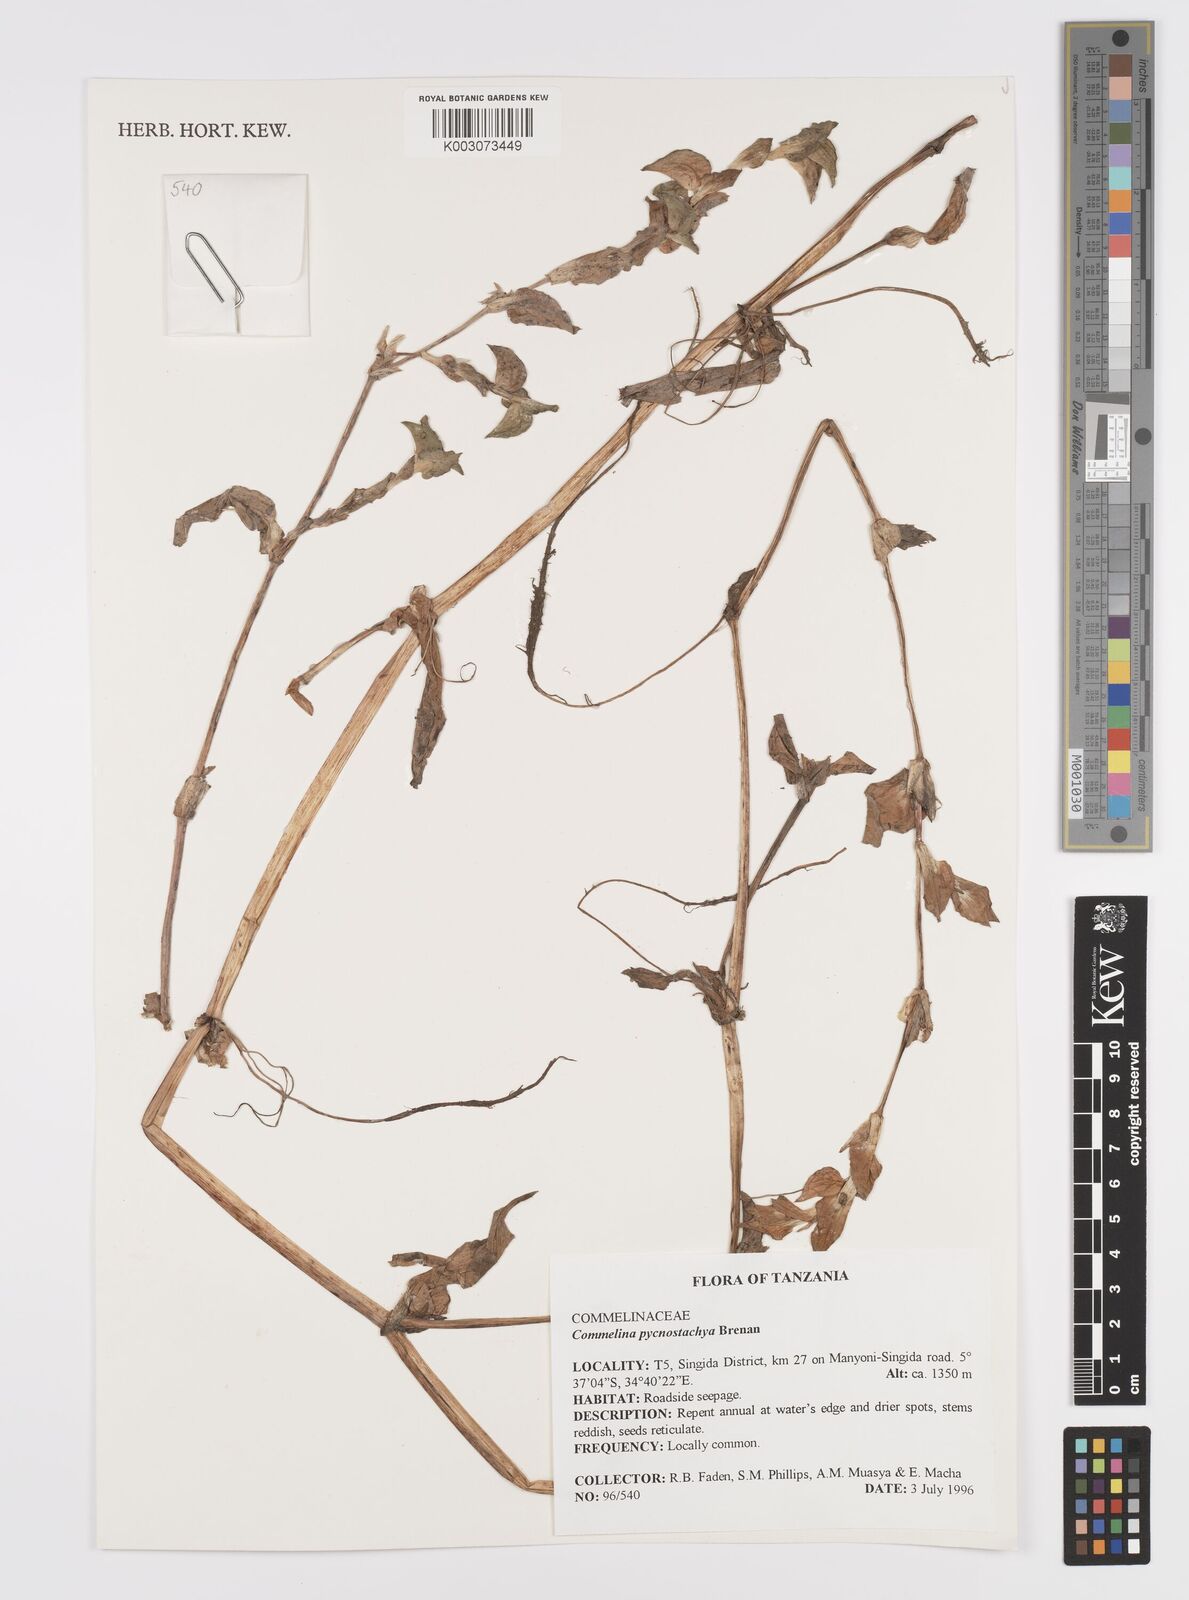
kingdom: Plantae
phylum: Tracheophyta
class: Liliopsida
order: Commelinales
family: Commelinaceae
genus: Commelina
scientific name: Commelina pycnospatha
